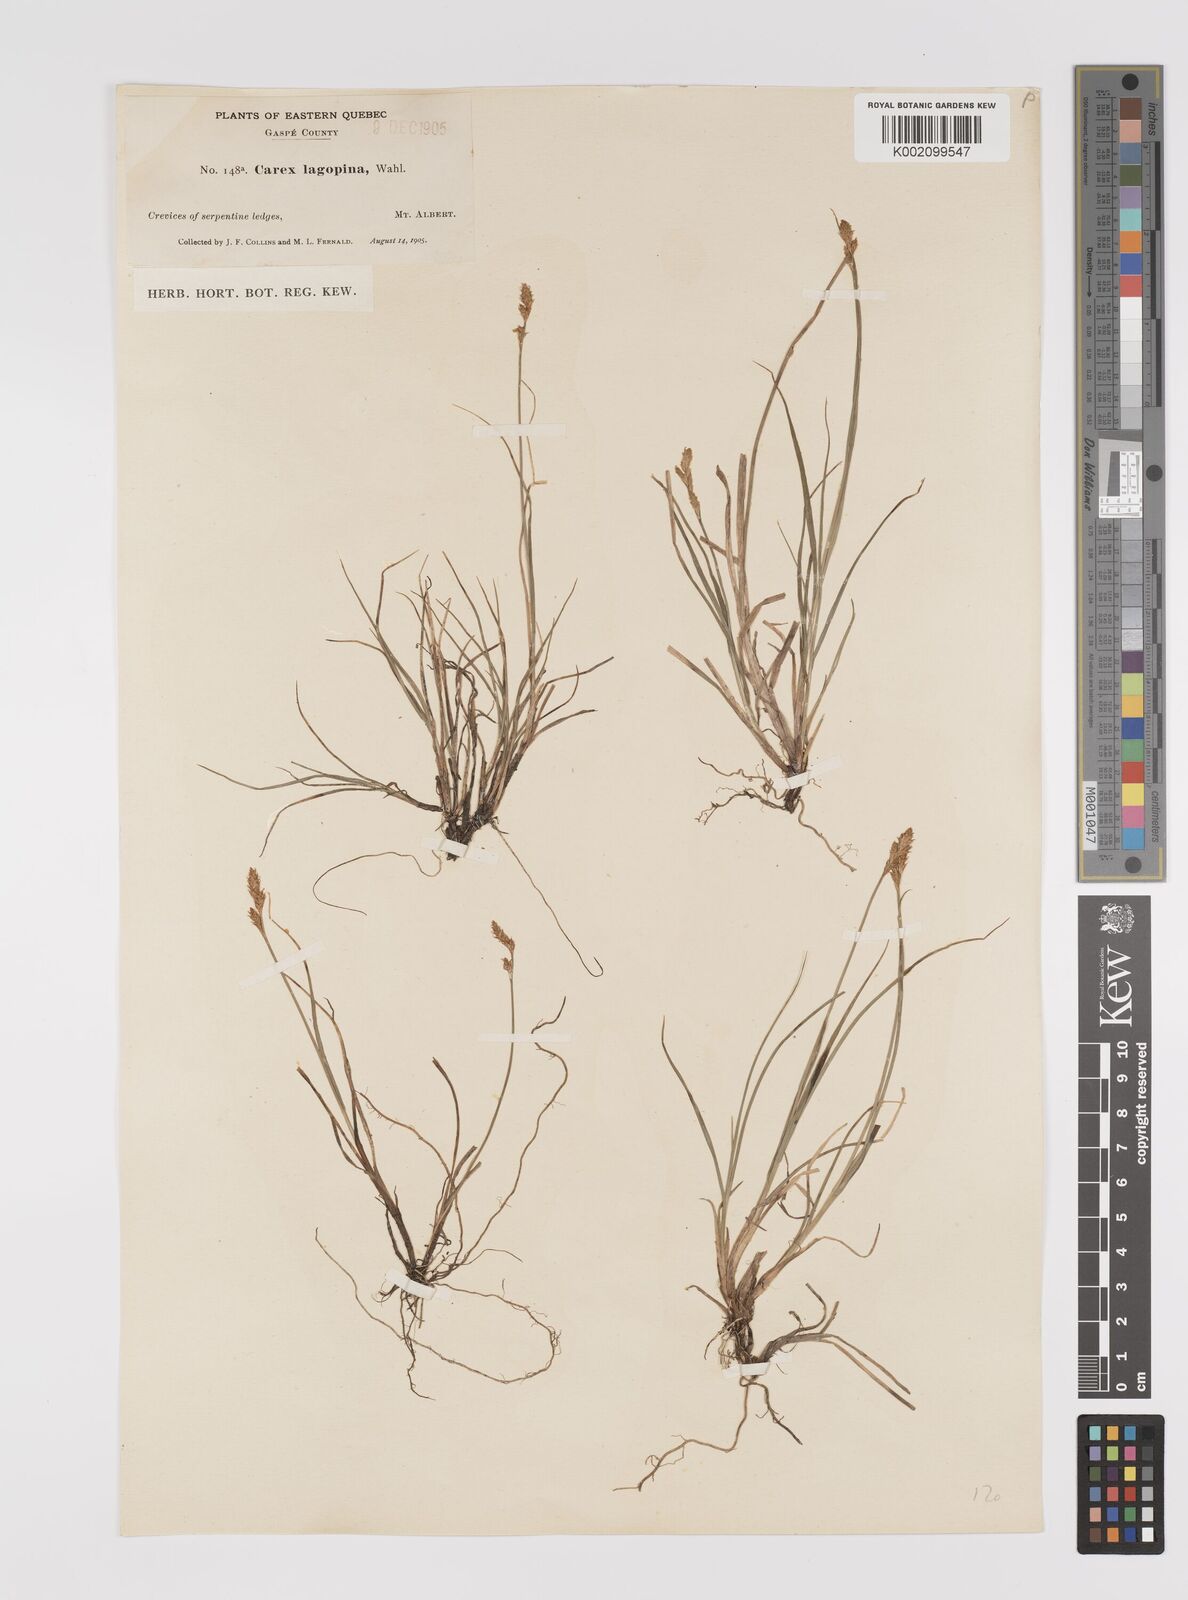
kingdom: Plantae
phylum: Tracheophyta
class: Liliopsida
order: Poales
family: Cyperaceae
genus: Carex
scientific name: Carex lachenalii
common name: Hare's-foot sedge
